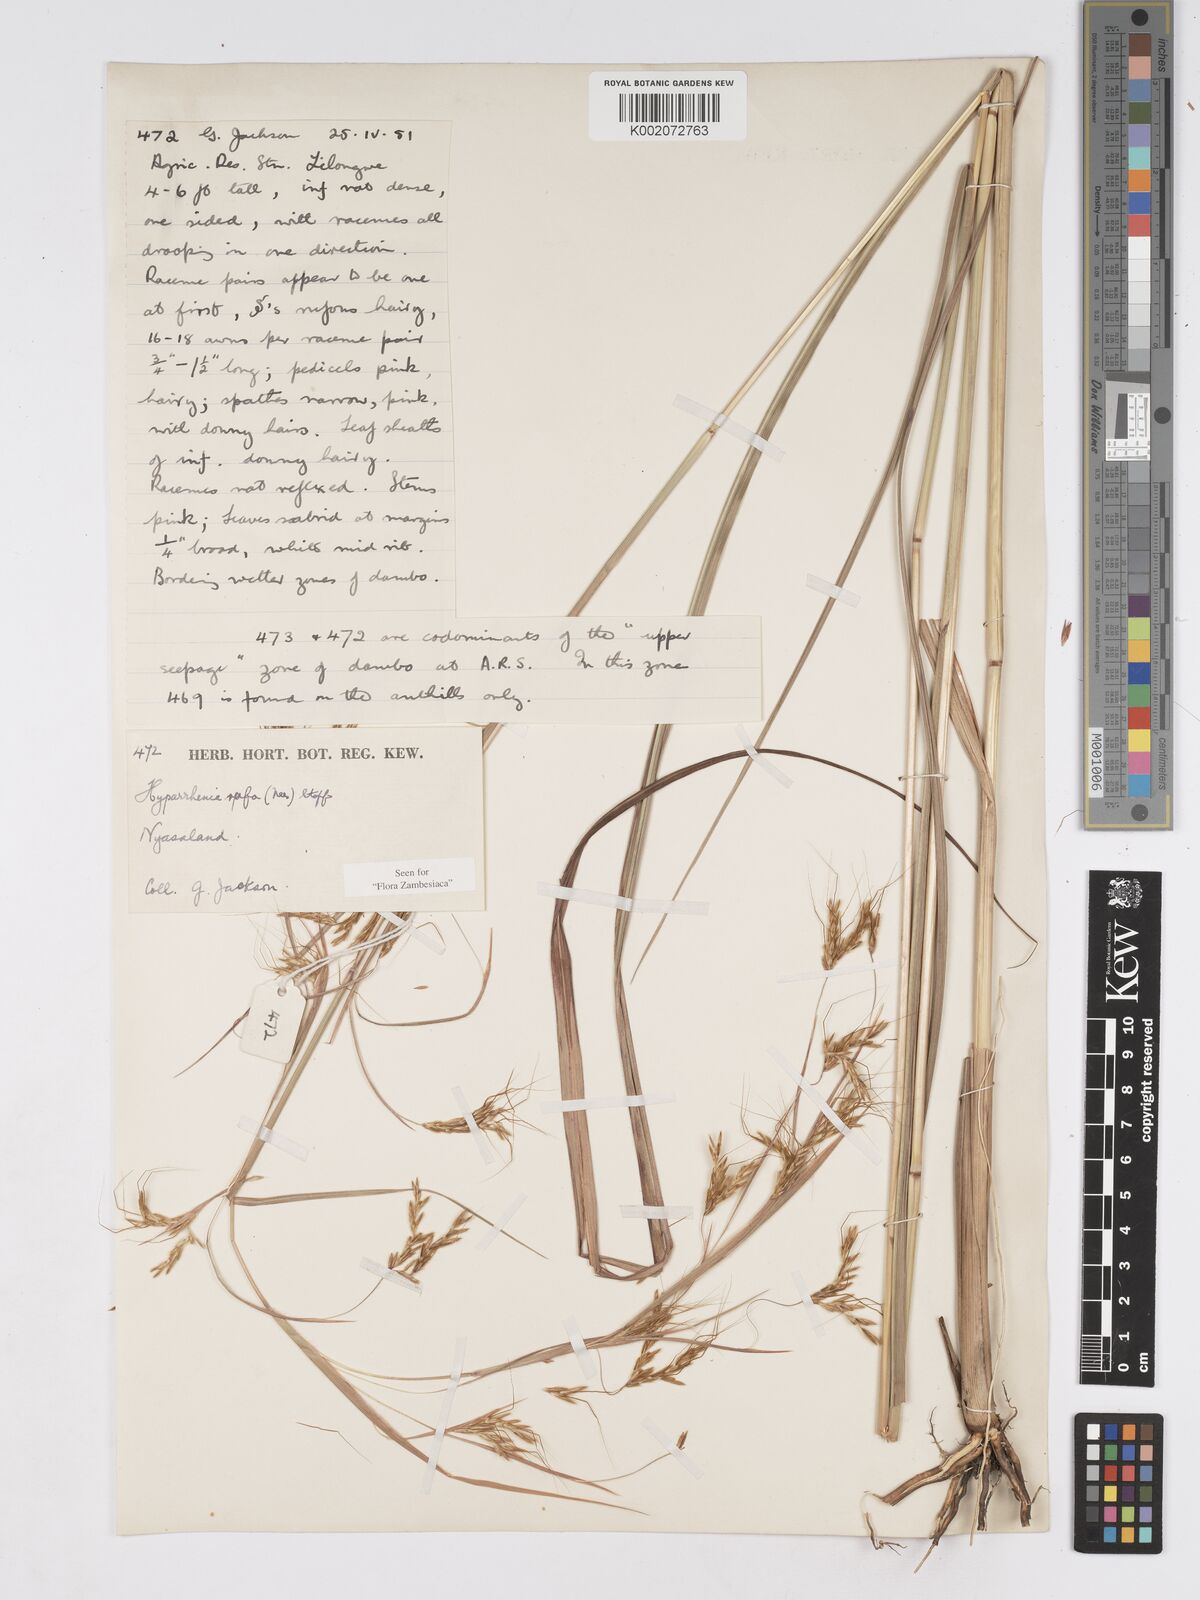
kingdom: Plantae
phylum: Tracheophyta
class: Liliopsida
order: Poales
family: Poaceae
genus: Hyparrhenia
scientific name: Hyparrhenia rufa
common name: Jaraguagrass
